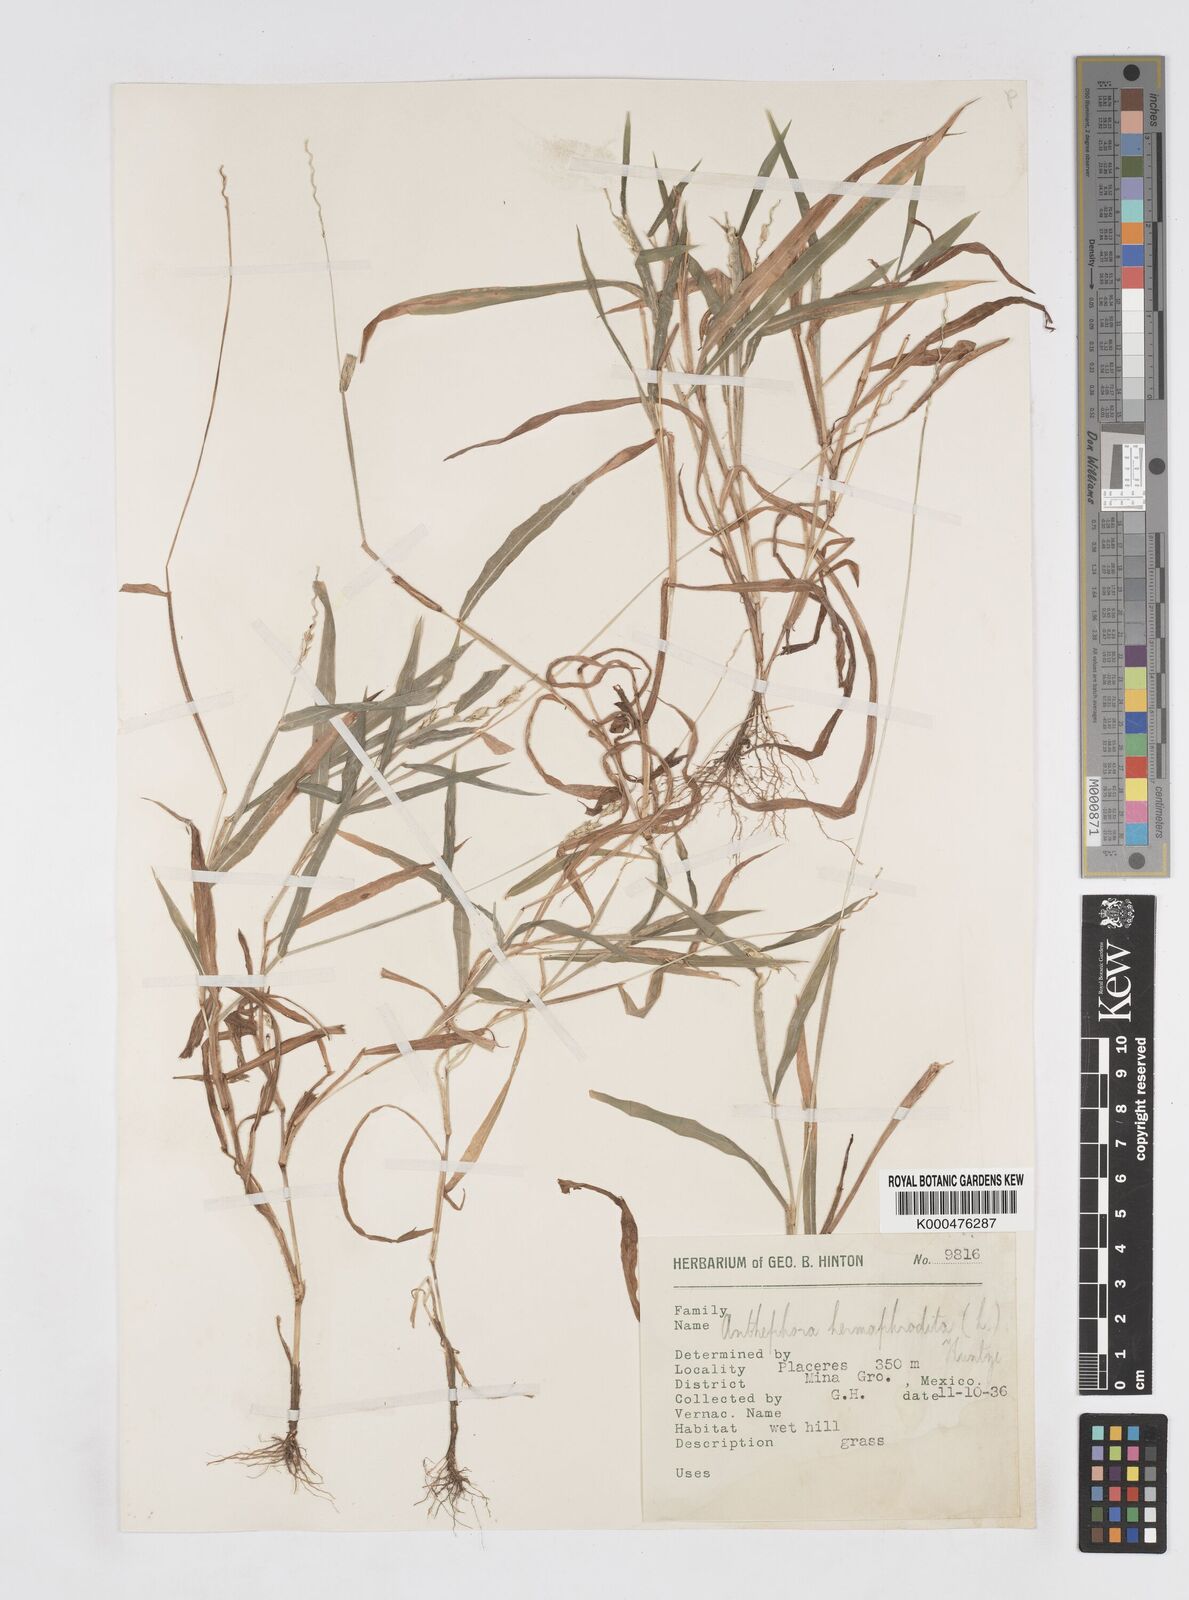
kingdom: Plantae
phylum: Tracheophyta
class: Liliopsida
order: Poales
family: Poaceae
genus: Anthephora
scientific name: Anthephora hermaphrodita
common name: Oldfield grass
